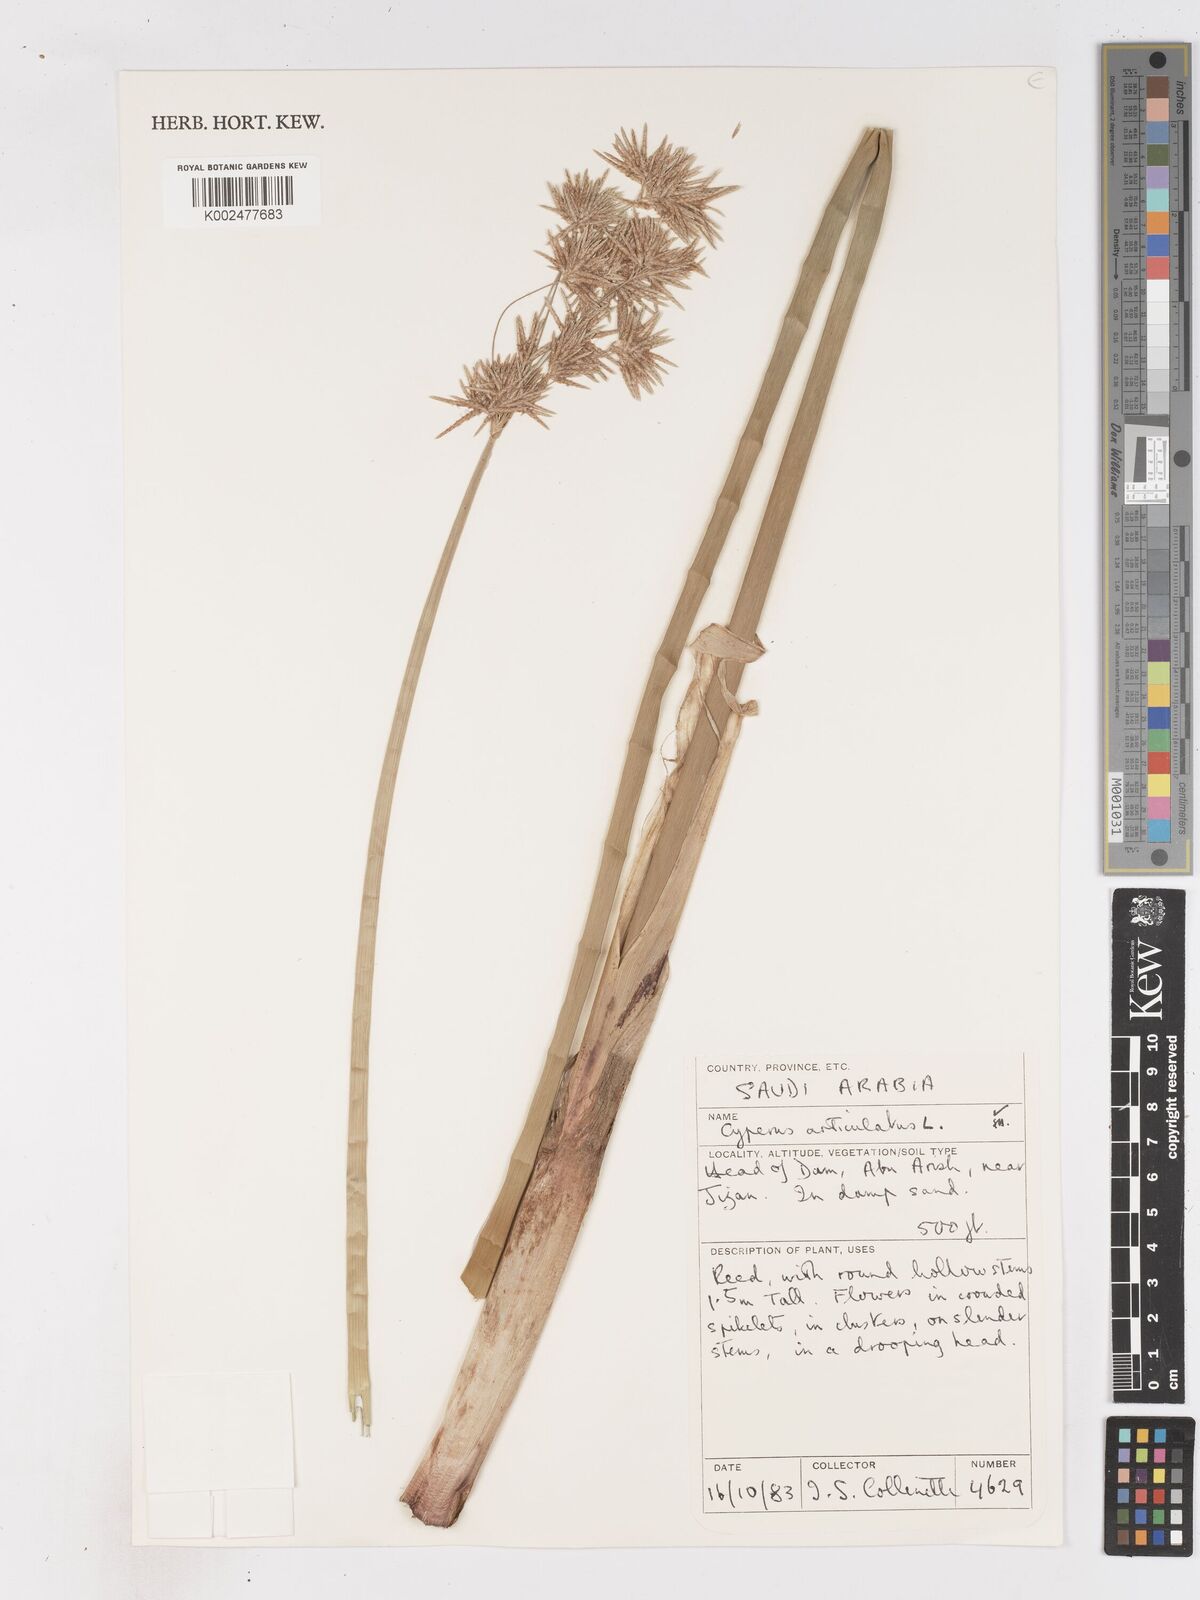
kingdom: Plantae
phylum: Tracheophyta
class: Liliopsida
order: Poales
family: Cyperaceae
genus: Cyperus
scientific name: Cyperus articulatus
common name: Jointed flatsedge
